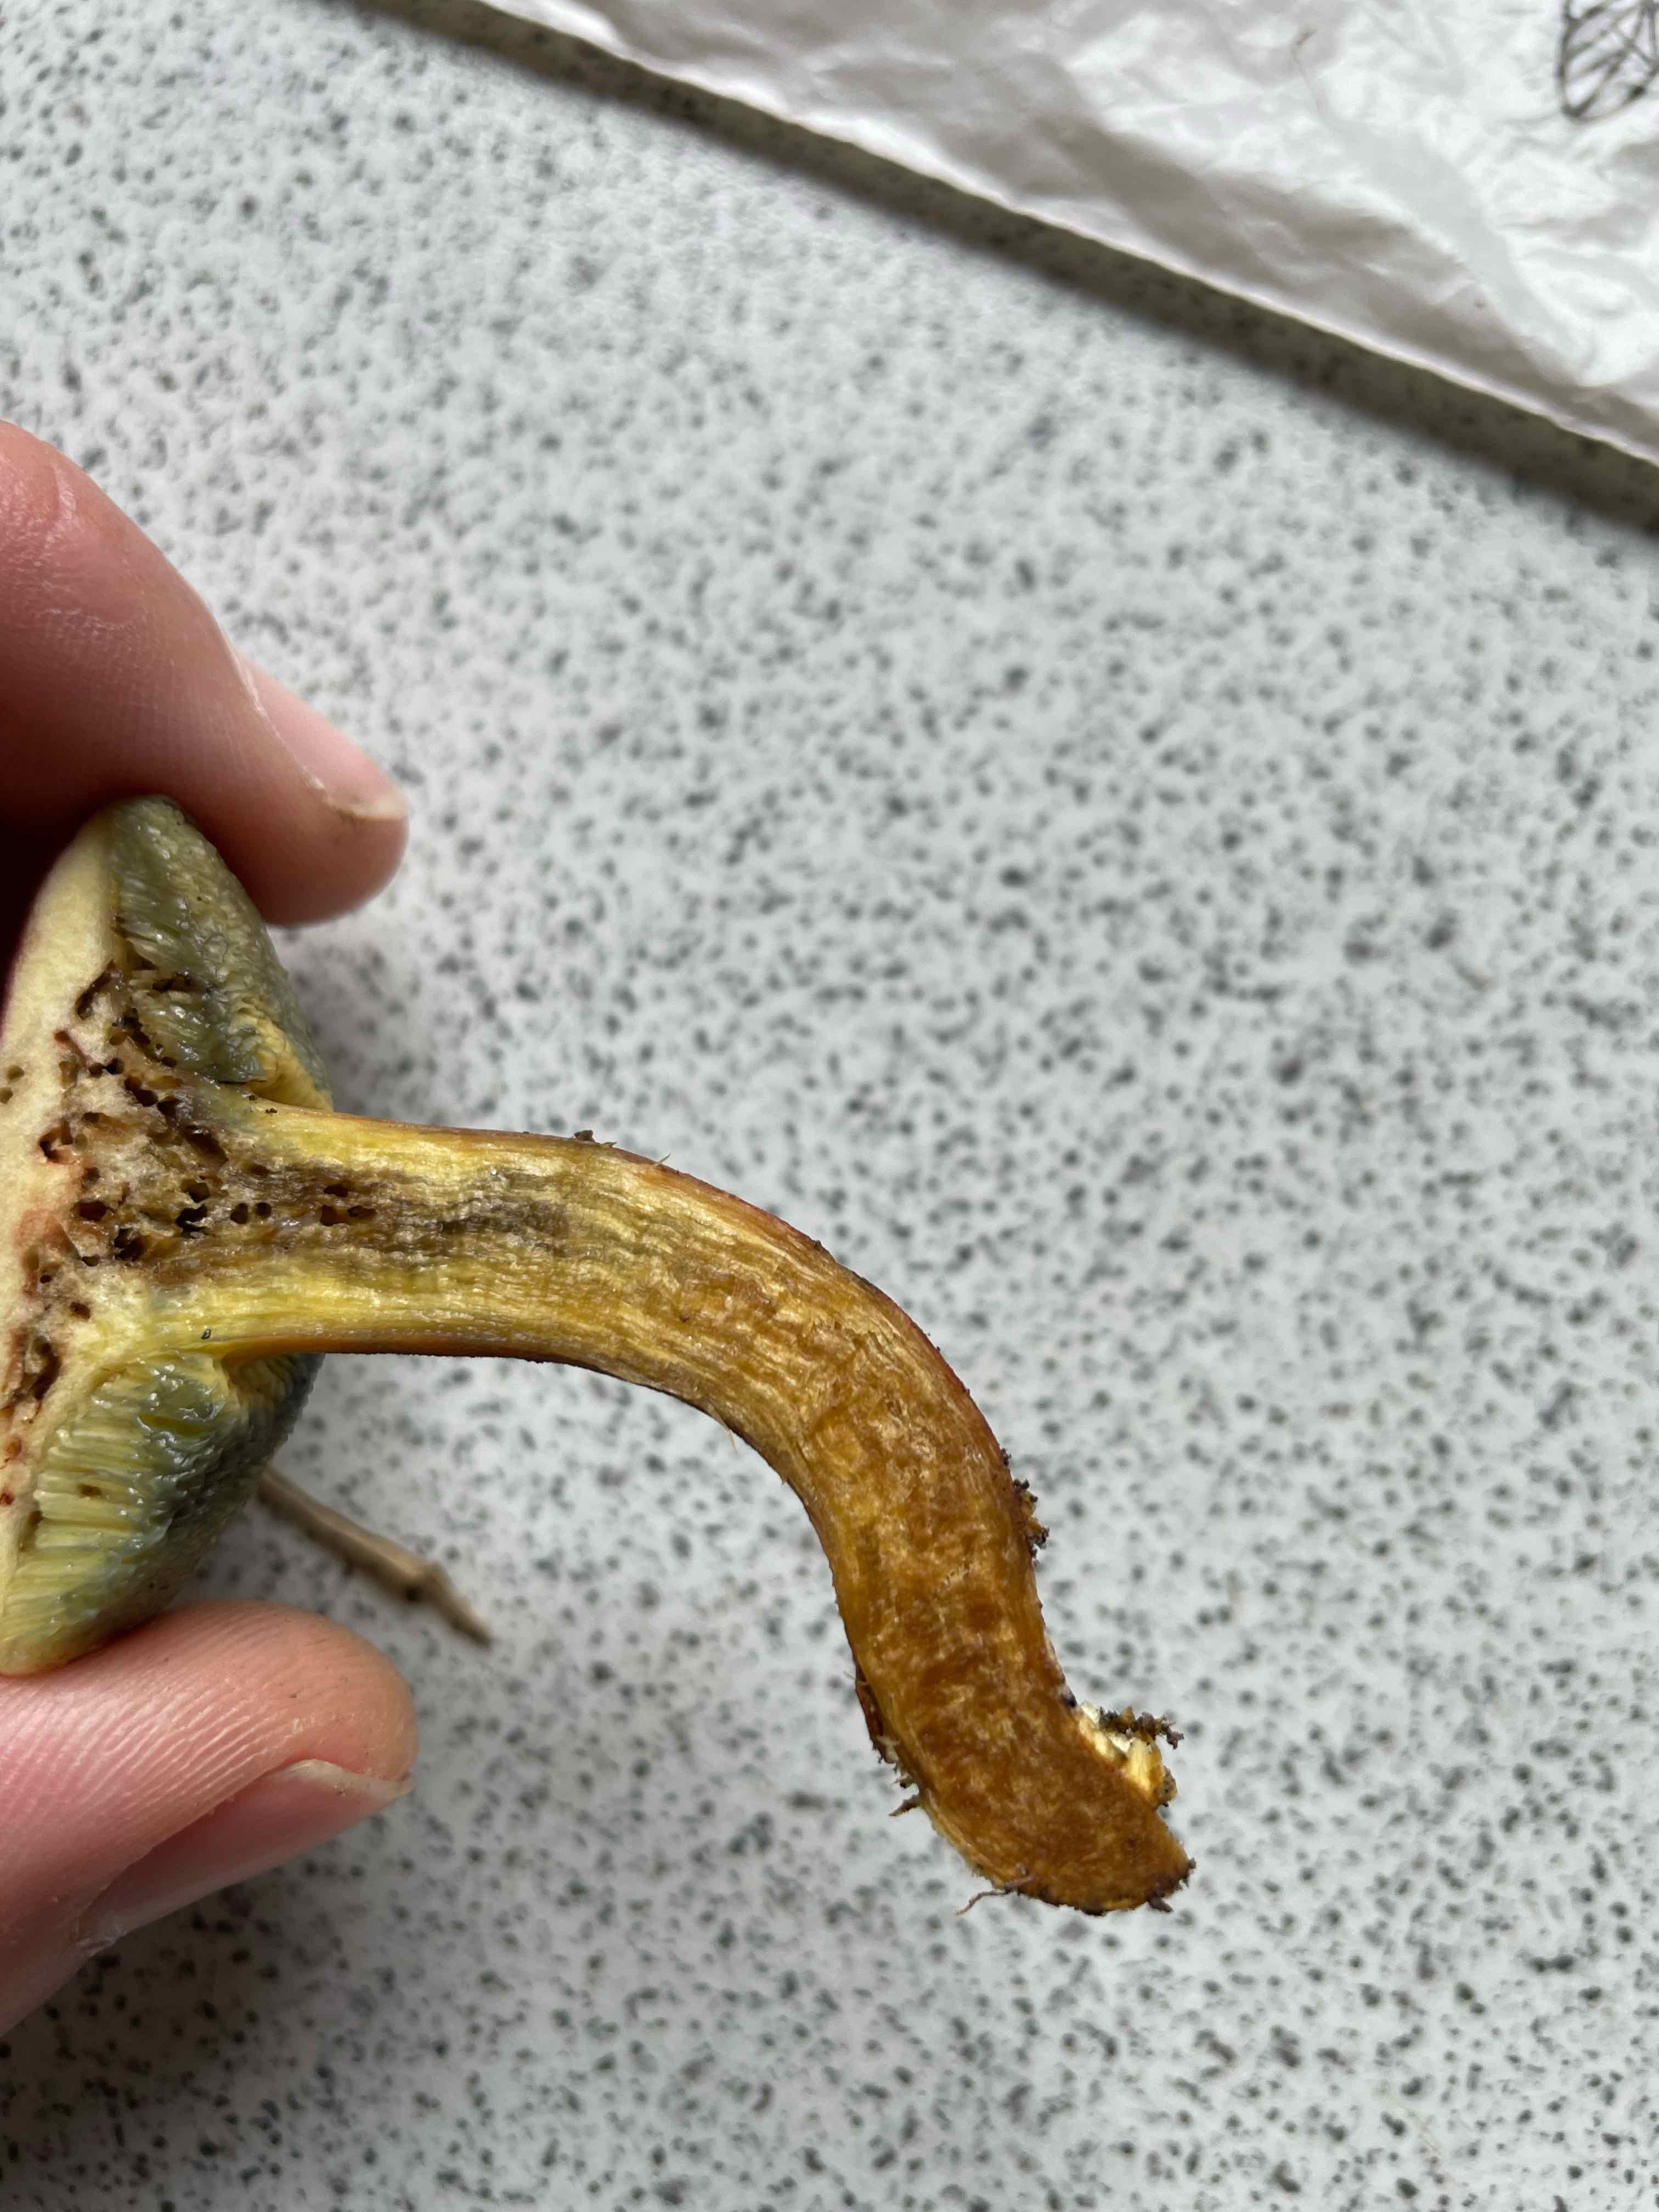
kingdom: Fungi
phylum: Basidiomycota
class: Agaricomycetes
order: Boletales
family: Boletaceae
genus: Hortiboletus
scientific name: Hortiboletus rubellus
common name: blodrød rørhat
